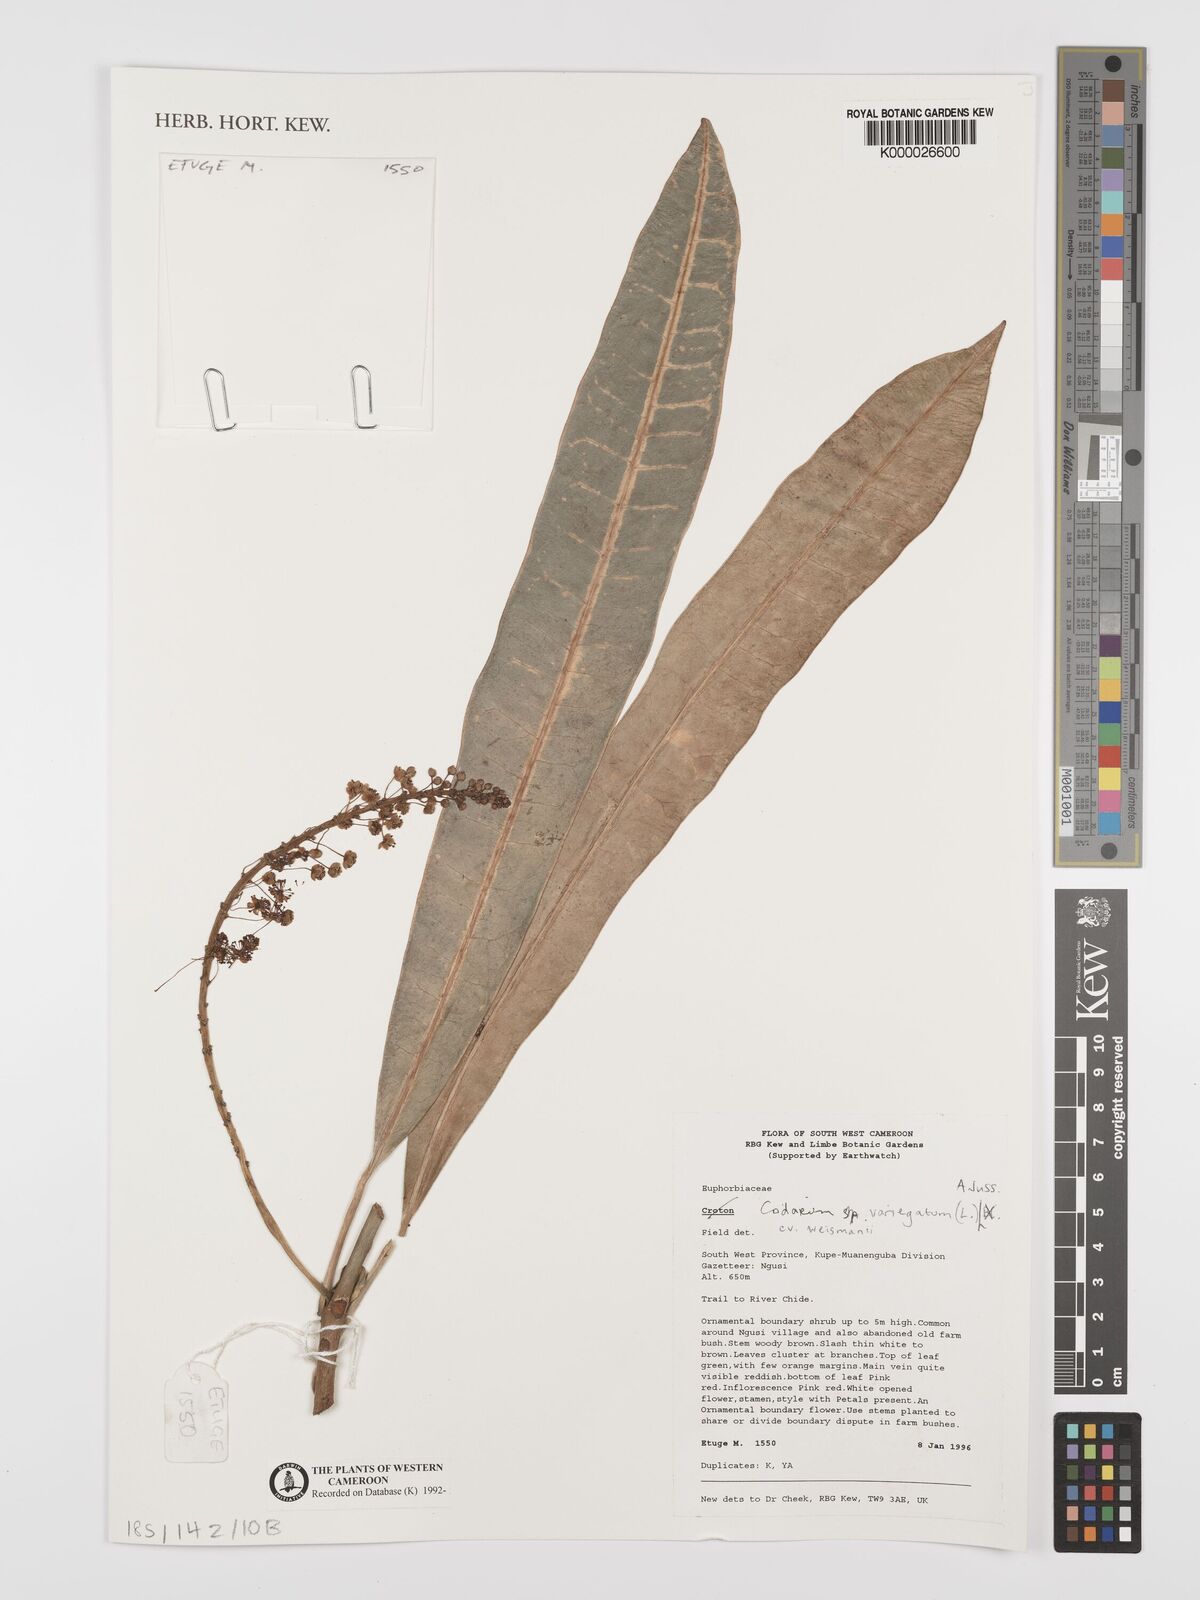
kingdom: Plantae
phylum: Tracheophyta
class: Magnoliopsida
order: Malpighiales
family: Euphorbiaceae
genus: Codiaeum
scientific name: Codiaeum variegatum
